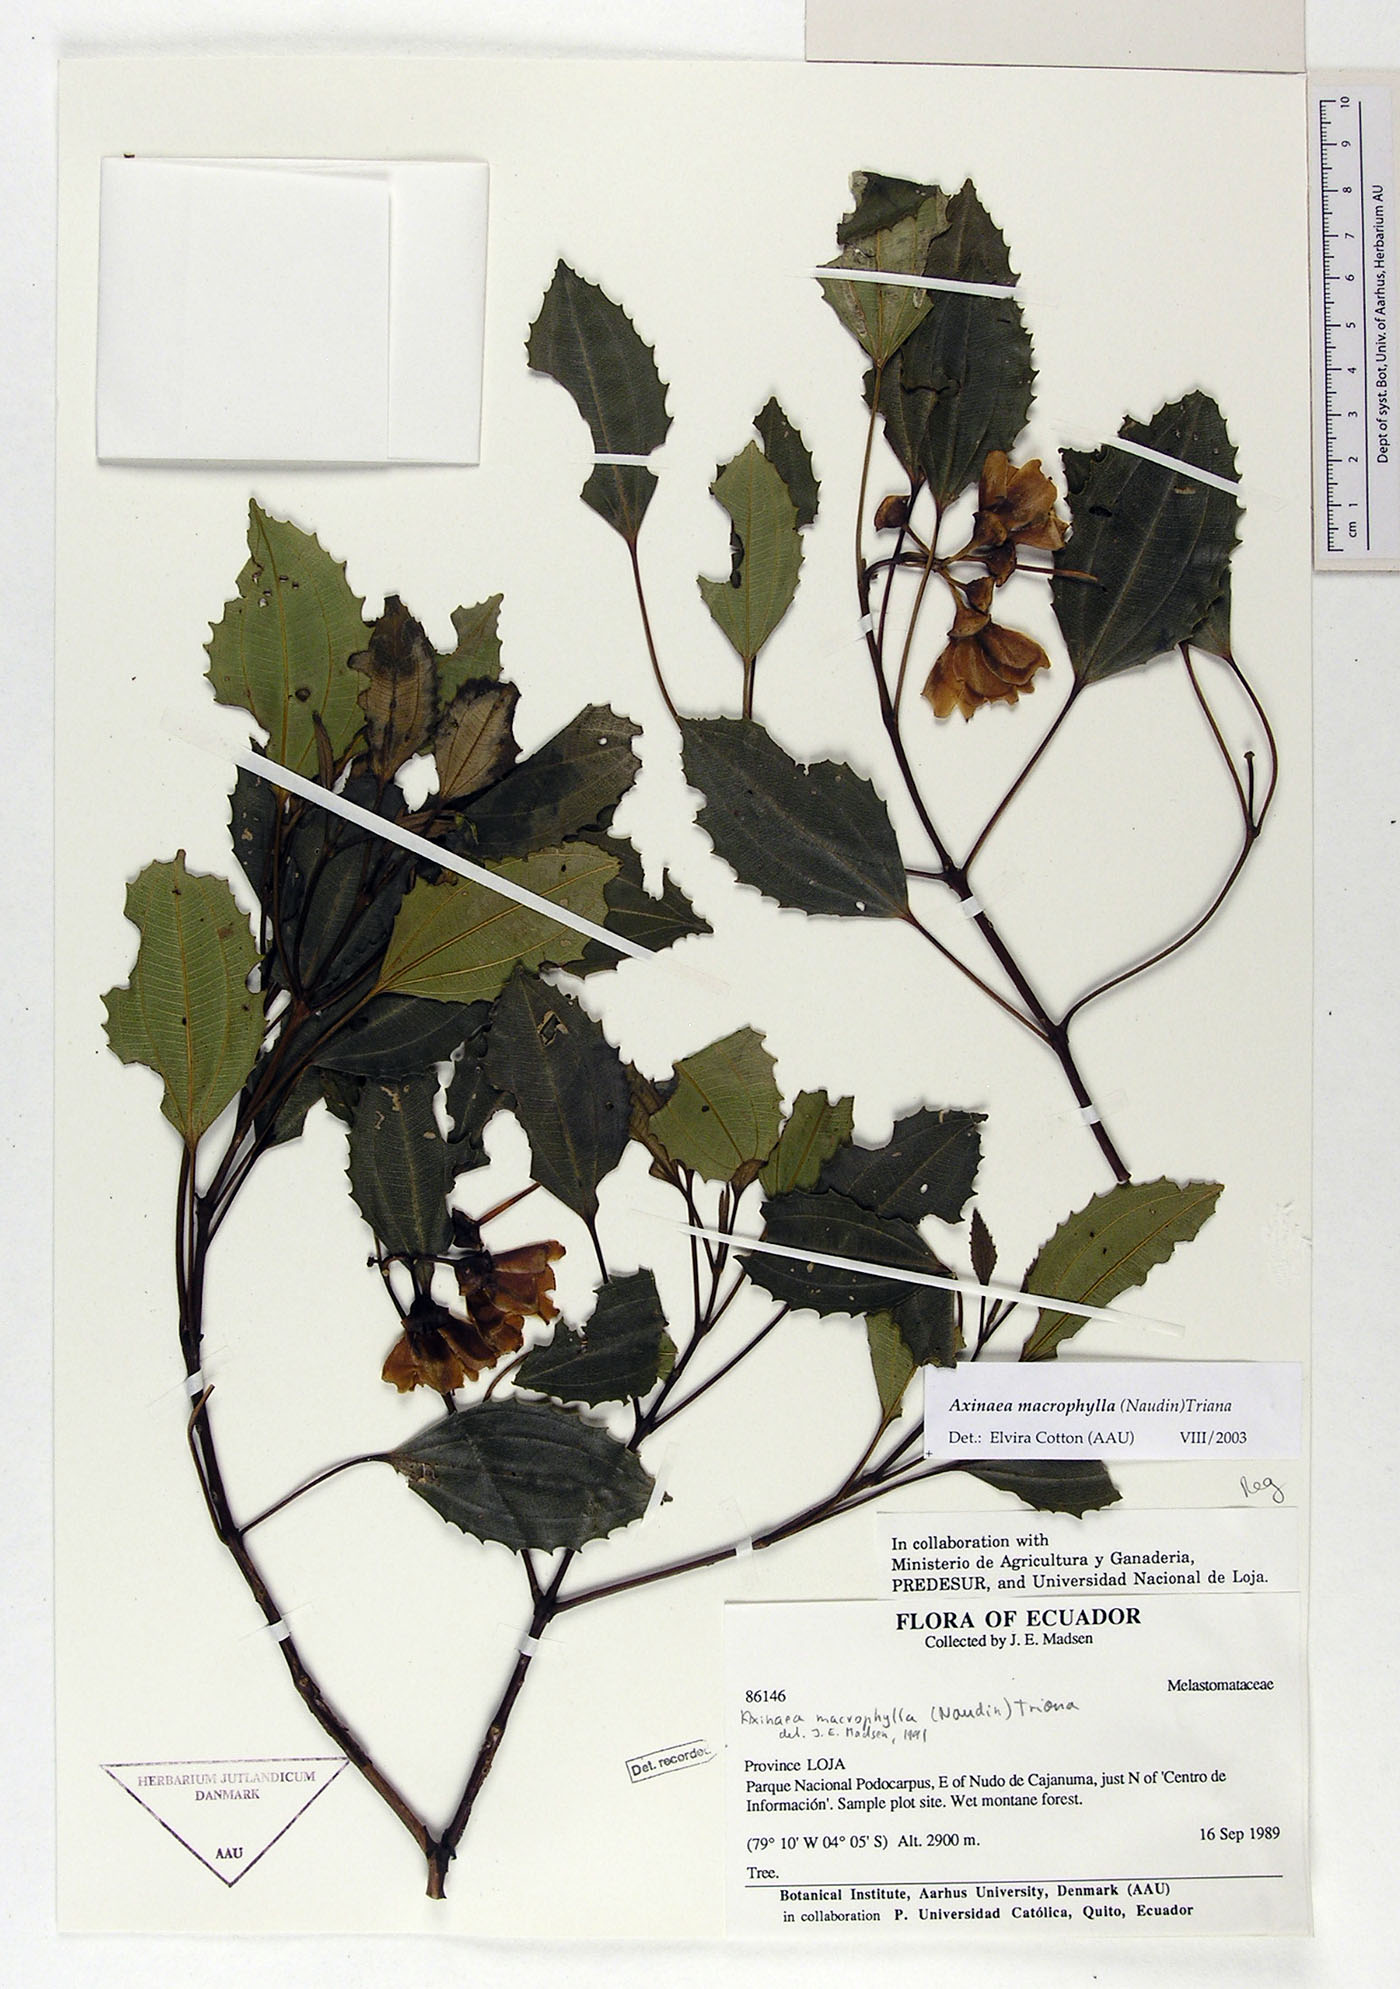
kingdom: Plantae
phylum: Tracheophyta
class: Magnoliopsida
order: Myrtales
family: Melastomataceae
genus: Axinaea
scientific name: Axinaea macrophylla
